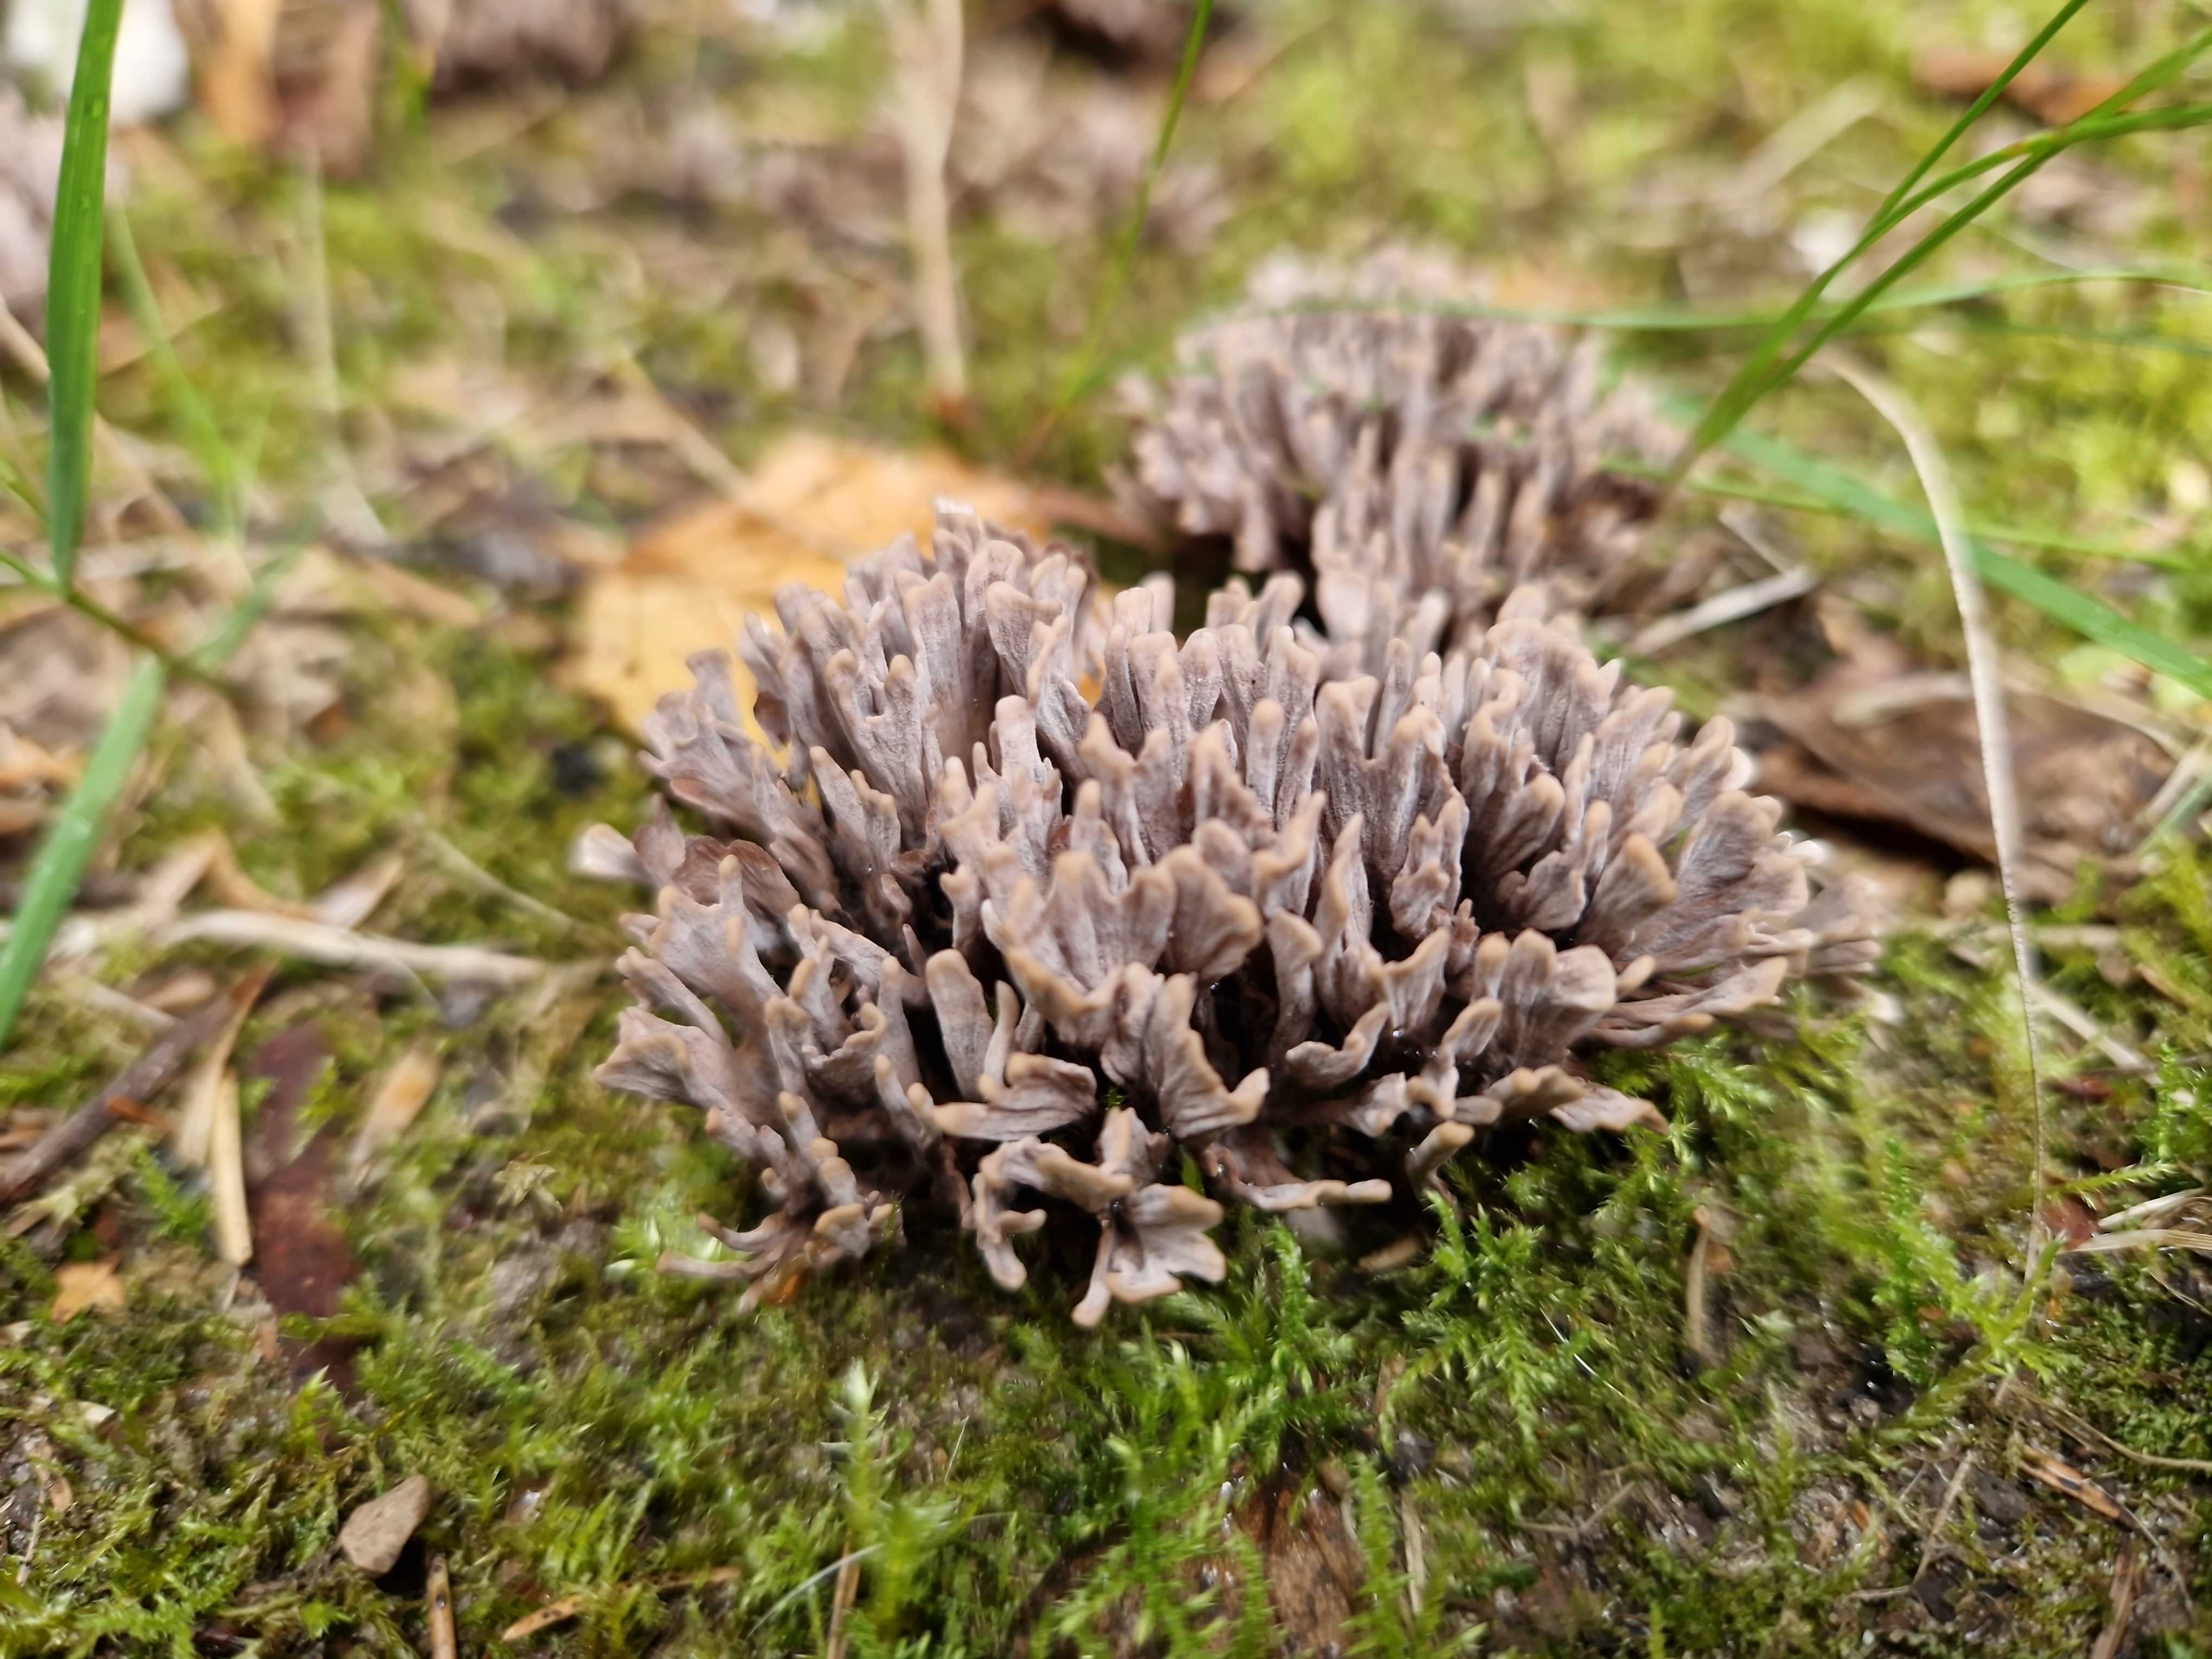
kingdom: Fungi
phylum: Basidiomycota
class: Agaricomycetes
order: Thelephorales
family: Thelephoraceae
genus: Thelephora
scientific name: Thelephora palmata
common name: grenet frynsesvamp
